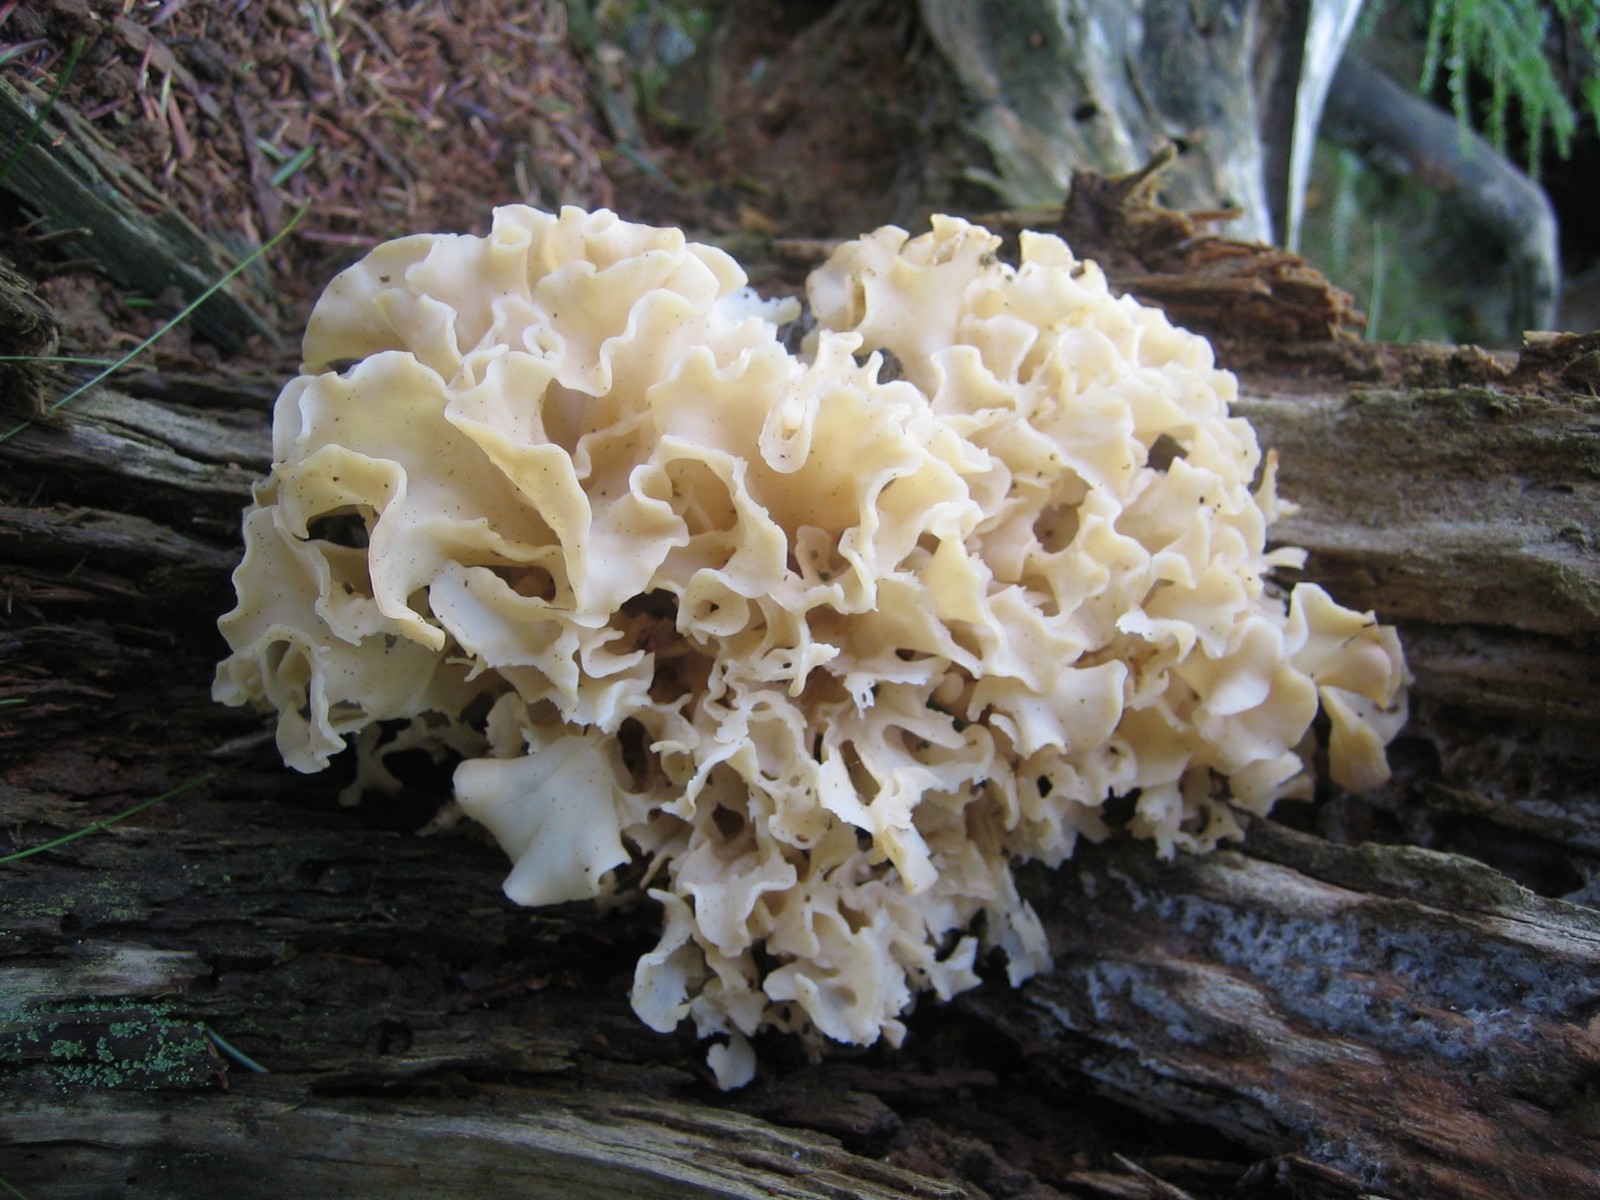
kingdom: Fungi
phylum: Basidiomycota
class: Agaricomycetes
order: Polyporales
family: Sparassidaceae
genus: Sparassis
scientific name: Sparassis crispa
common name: kruset blomkålssvamp
